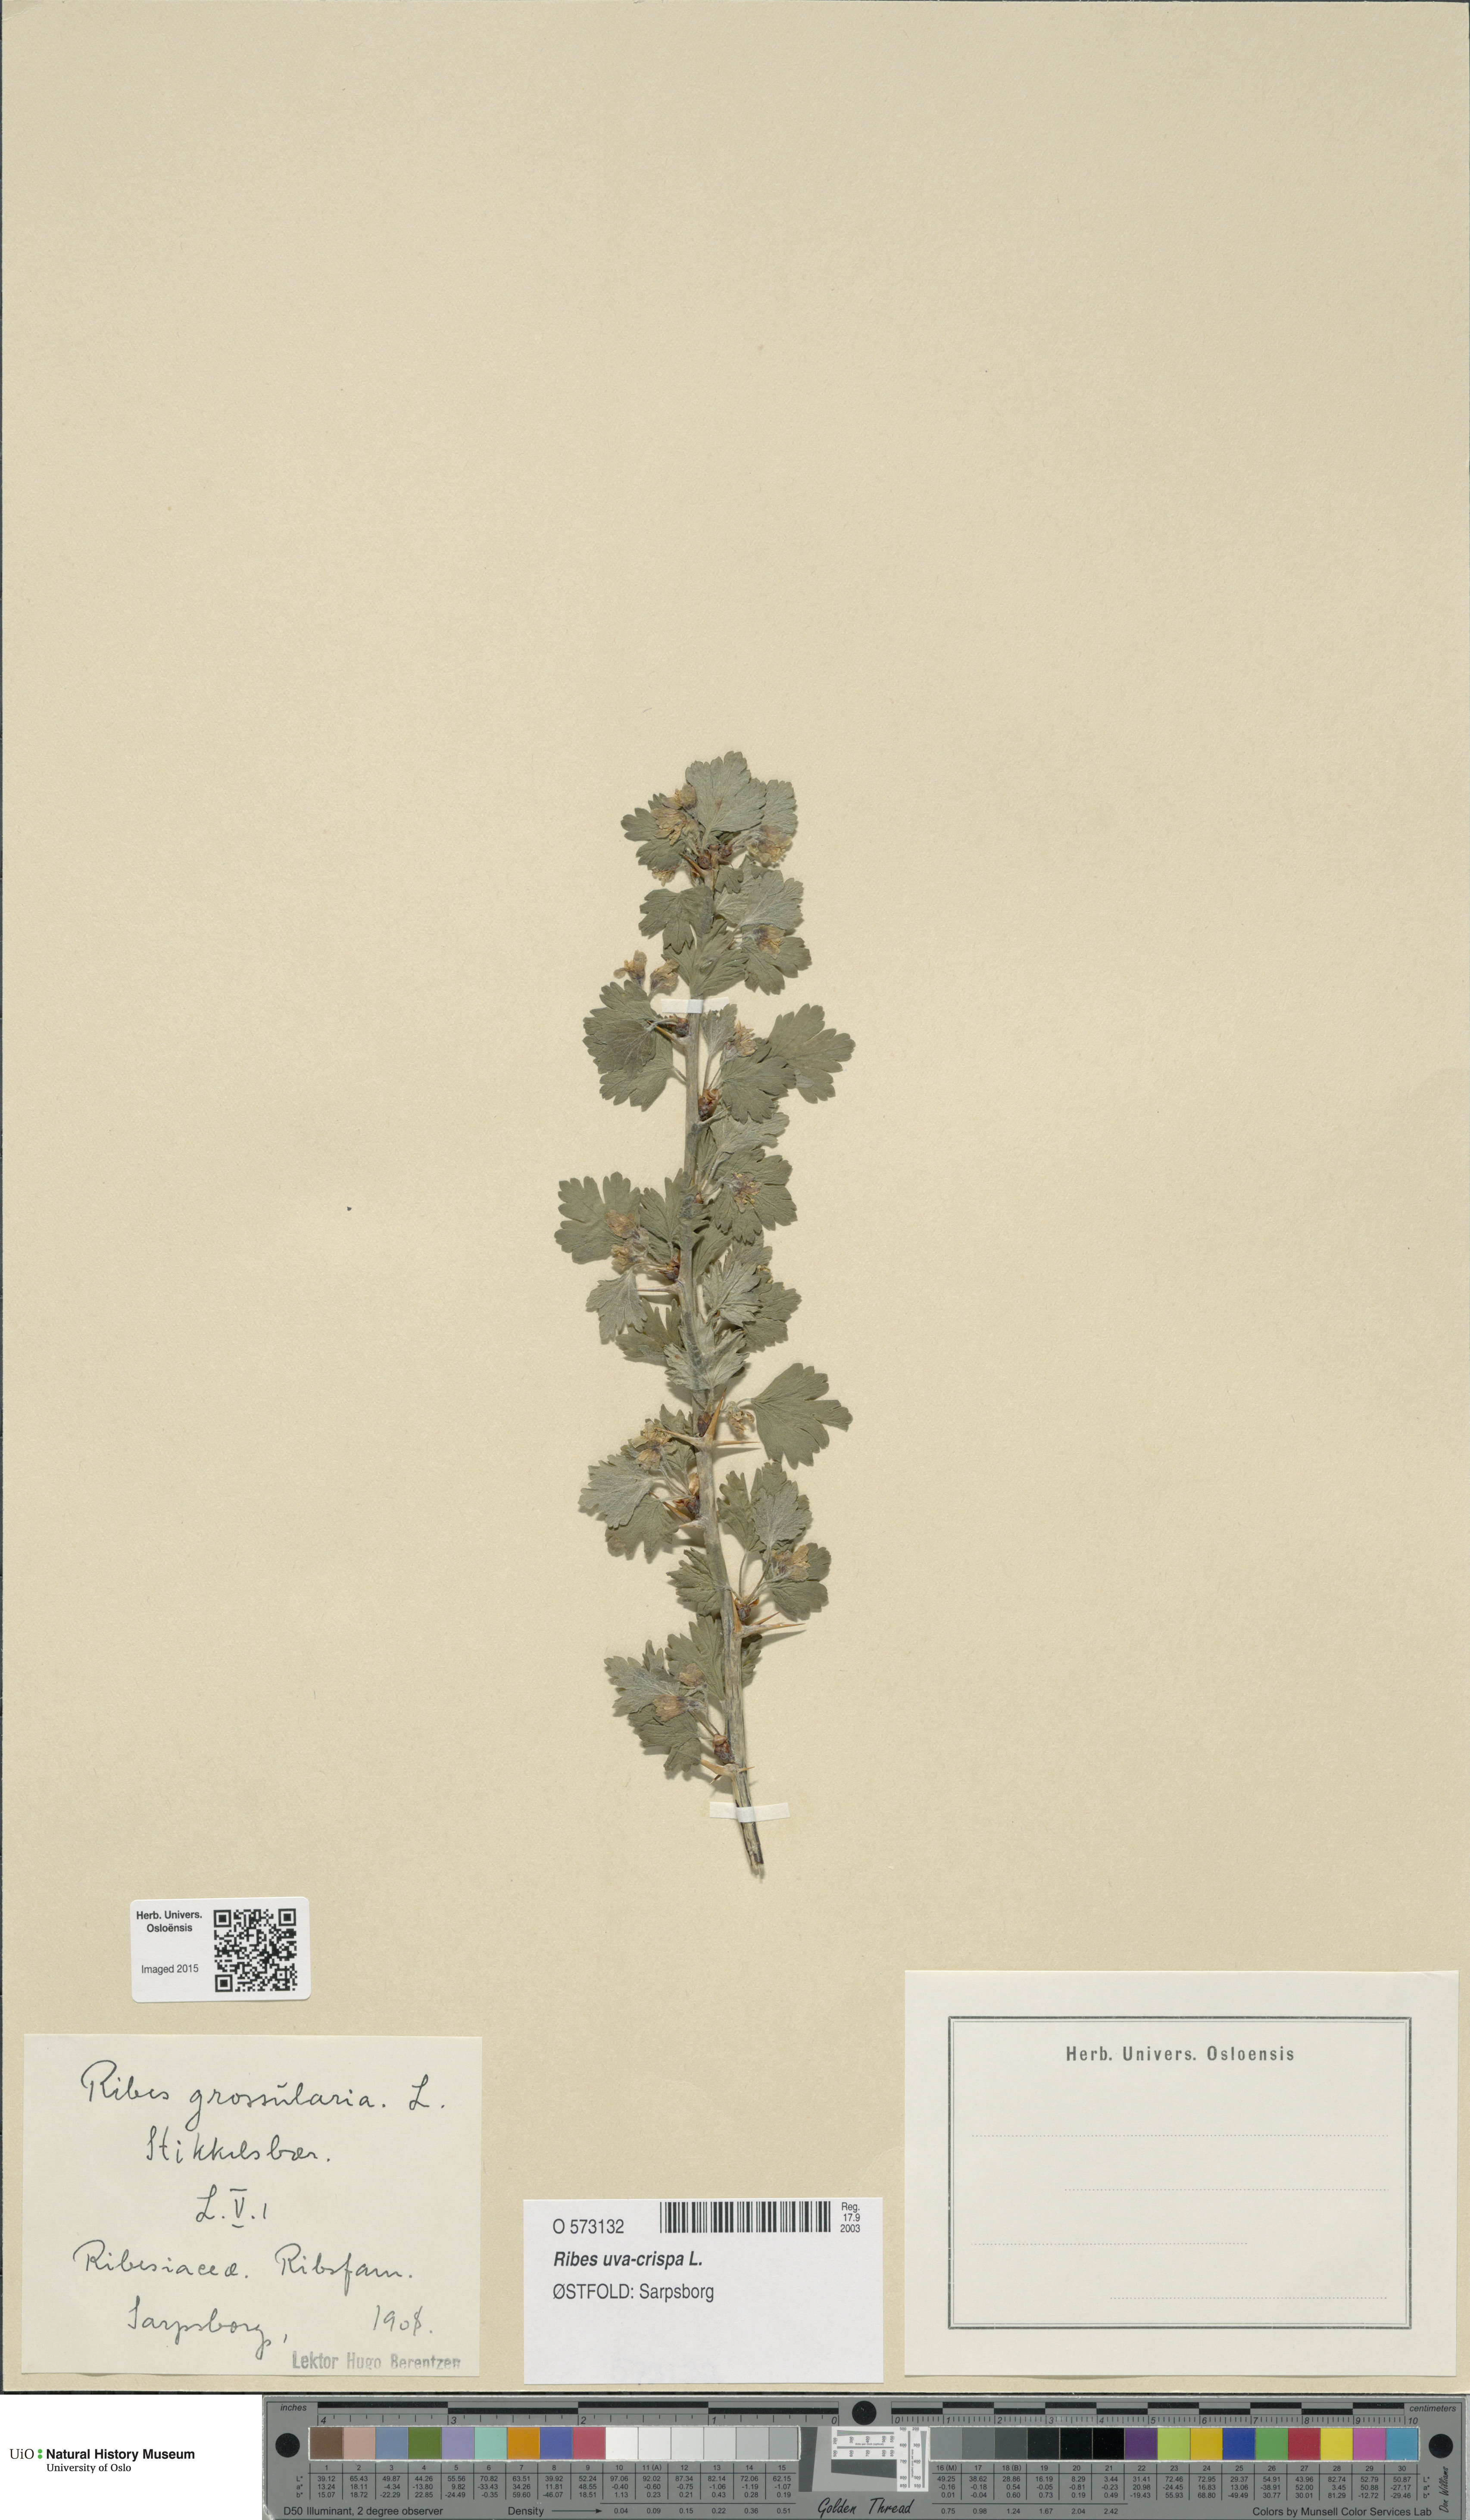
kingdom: Plantae
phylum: Tracheophyta
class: Magnoliopsida
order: Saxifragales
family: Grossulariaceae
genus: Ribes
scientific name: Ribes uva-crispa
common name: Gooseberry
